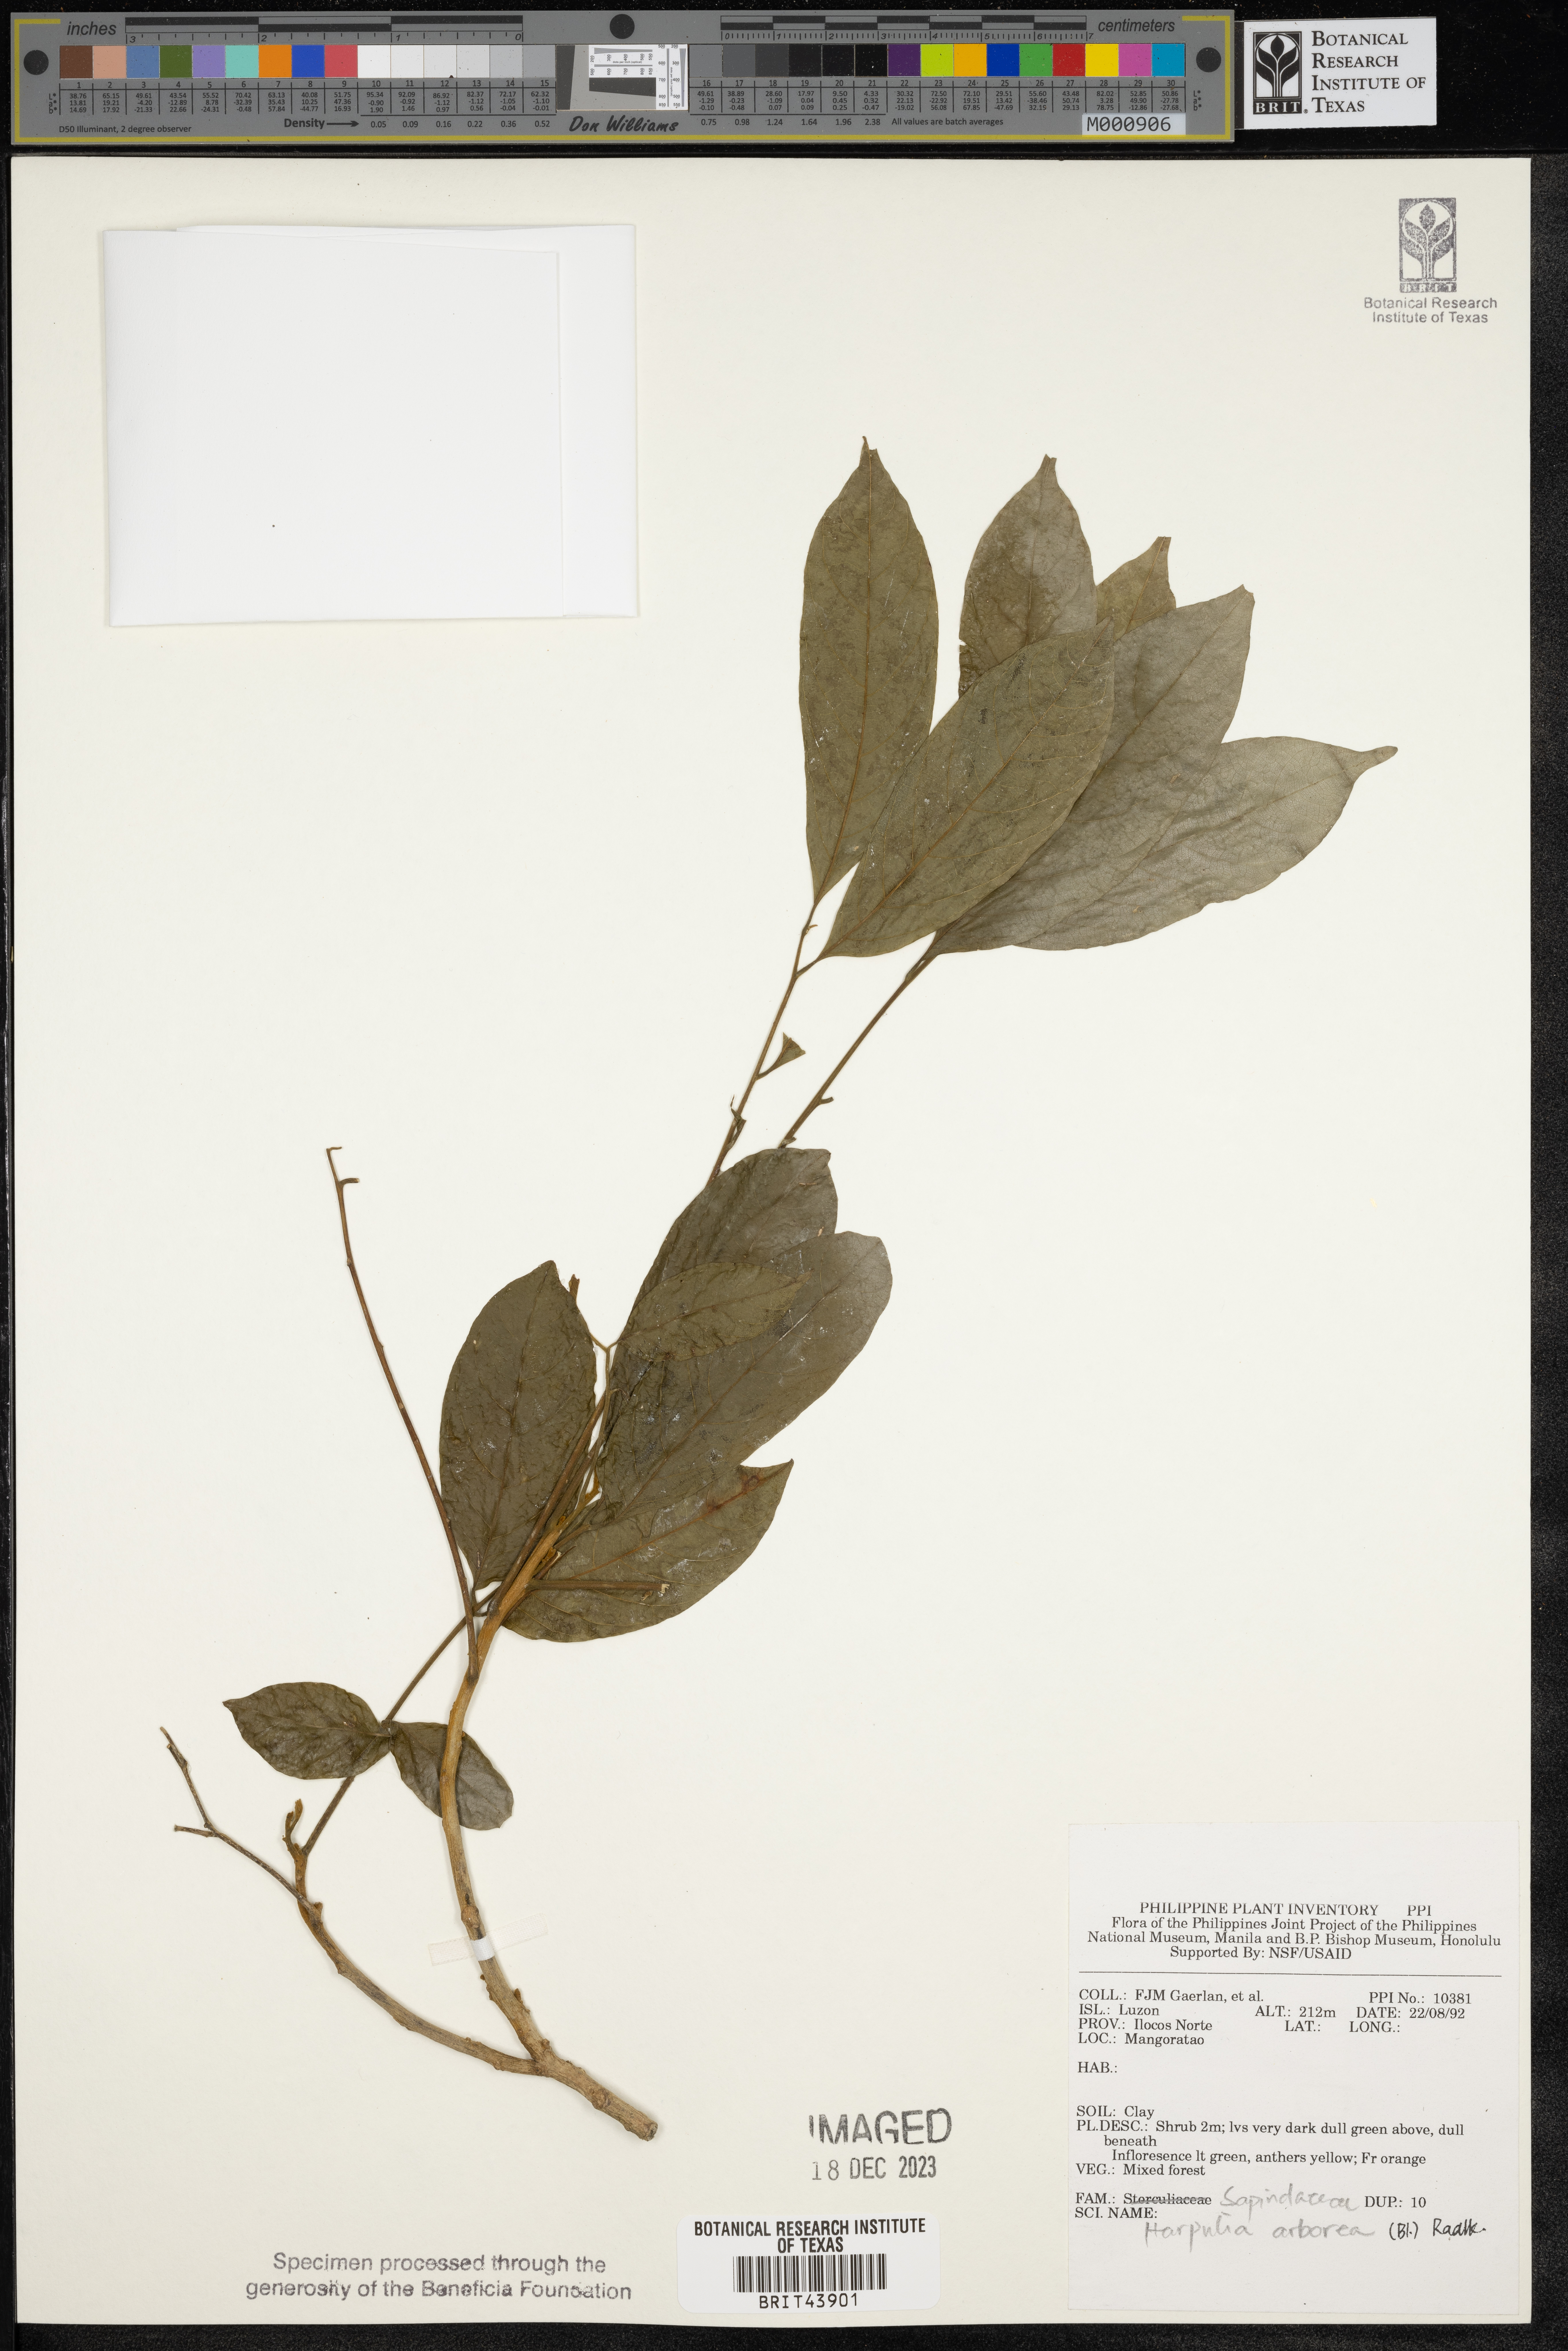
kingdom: Plantae
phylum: Tracheophyta
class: Magnoliopsida
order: Sapindales
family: Sapindaceae
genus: Harpullia
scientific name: Harpullia arborea
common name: Tulip-wood tree
